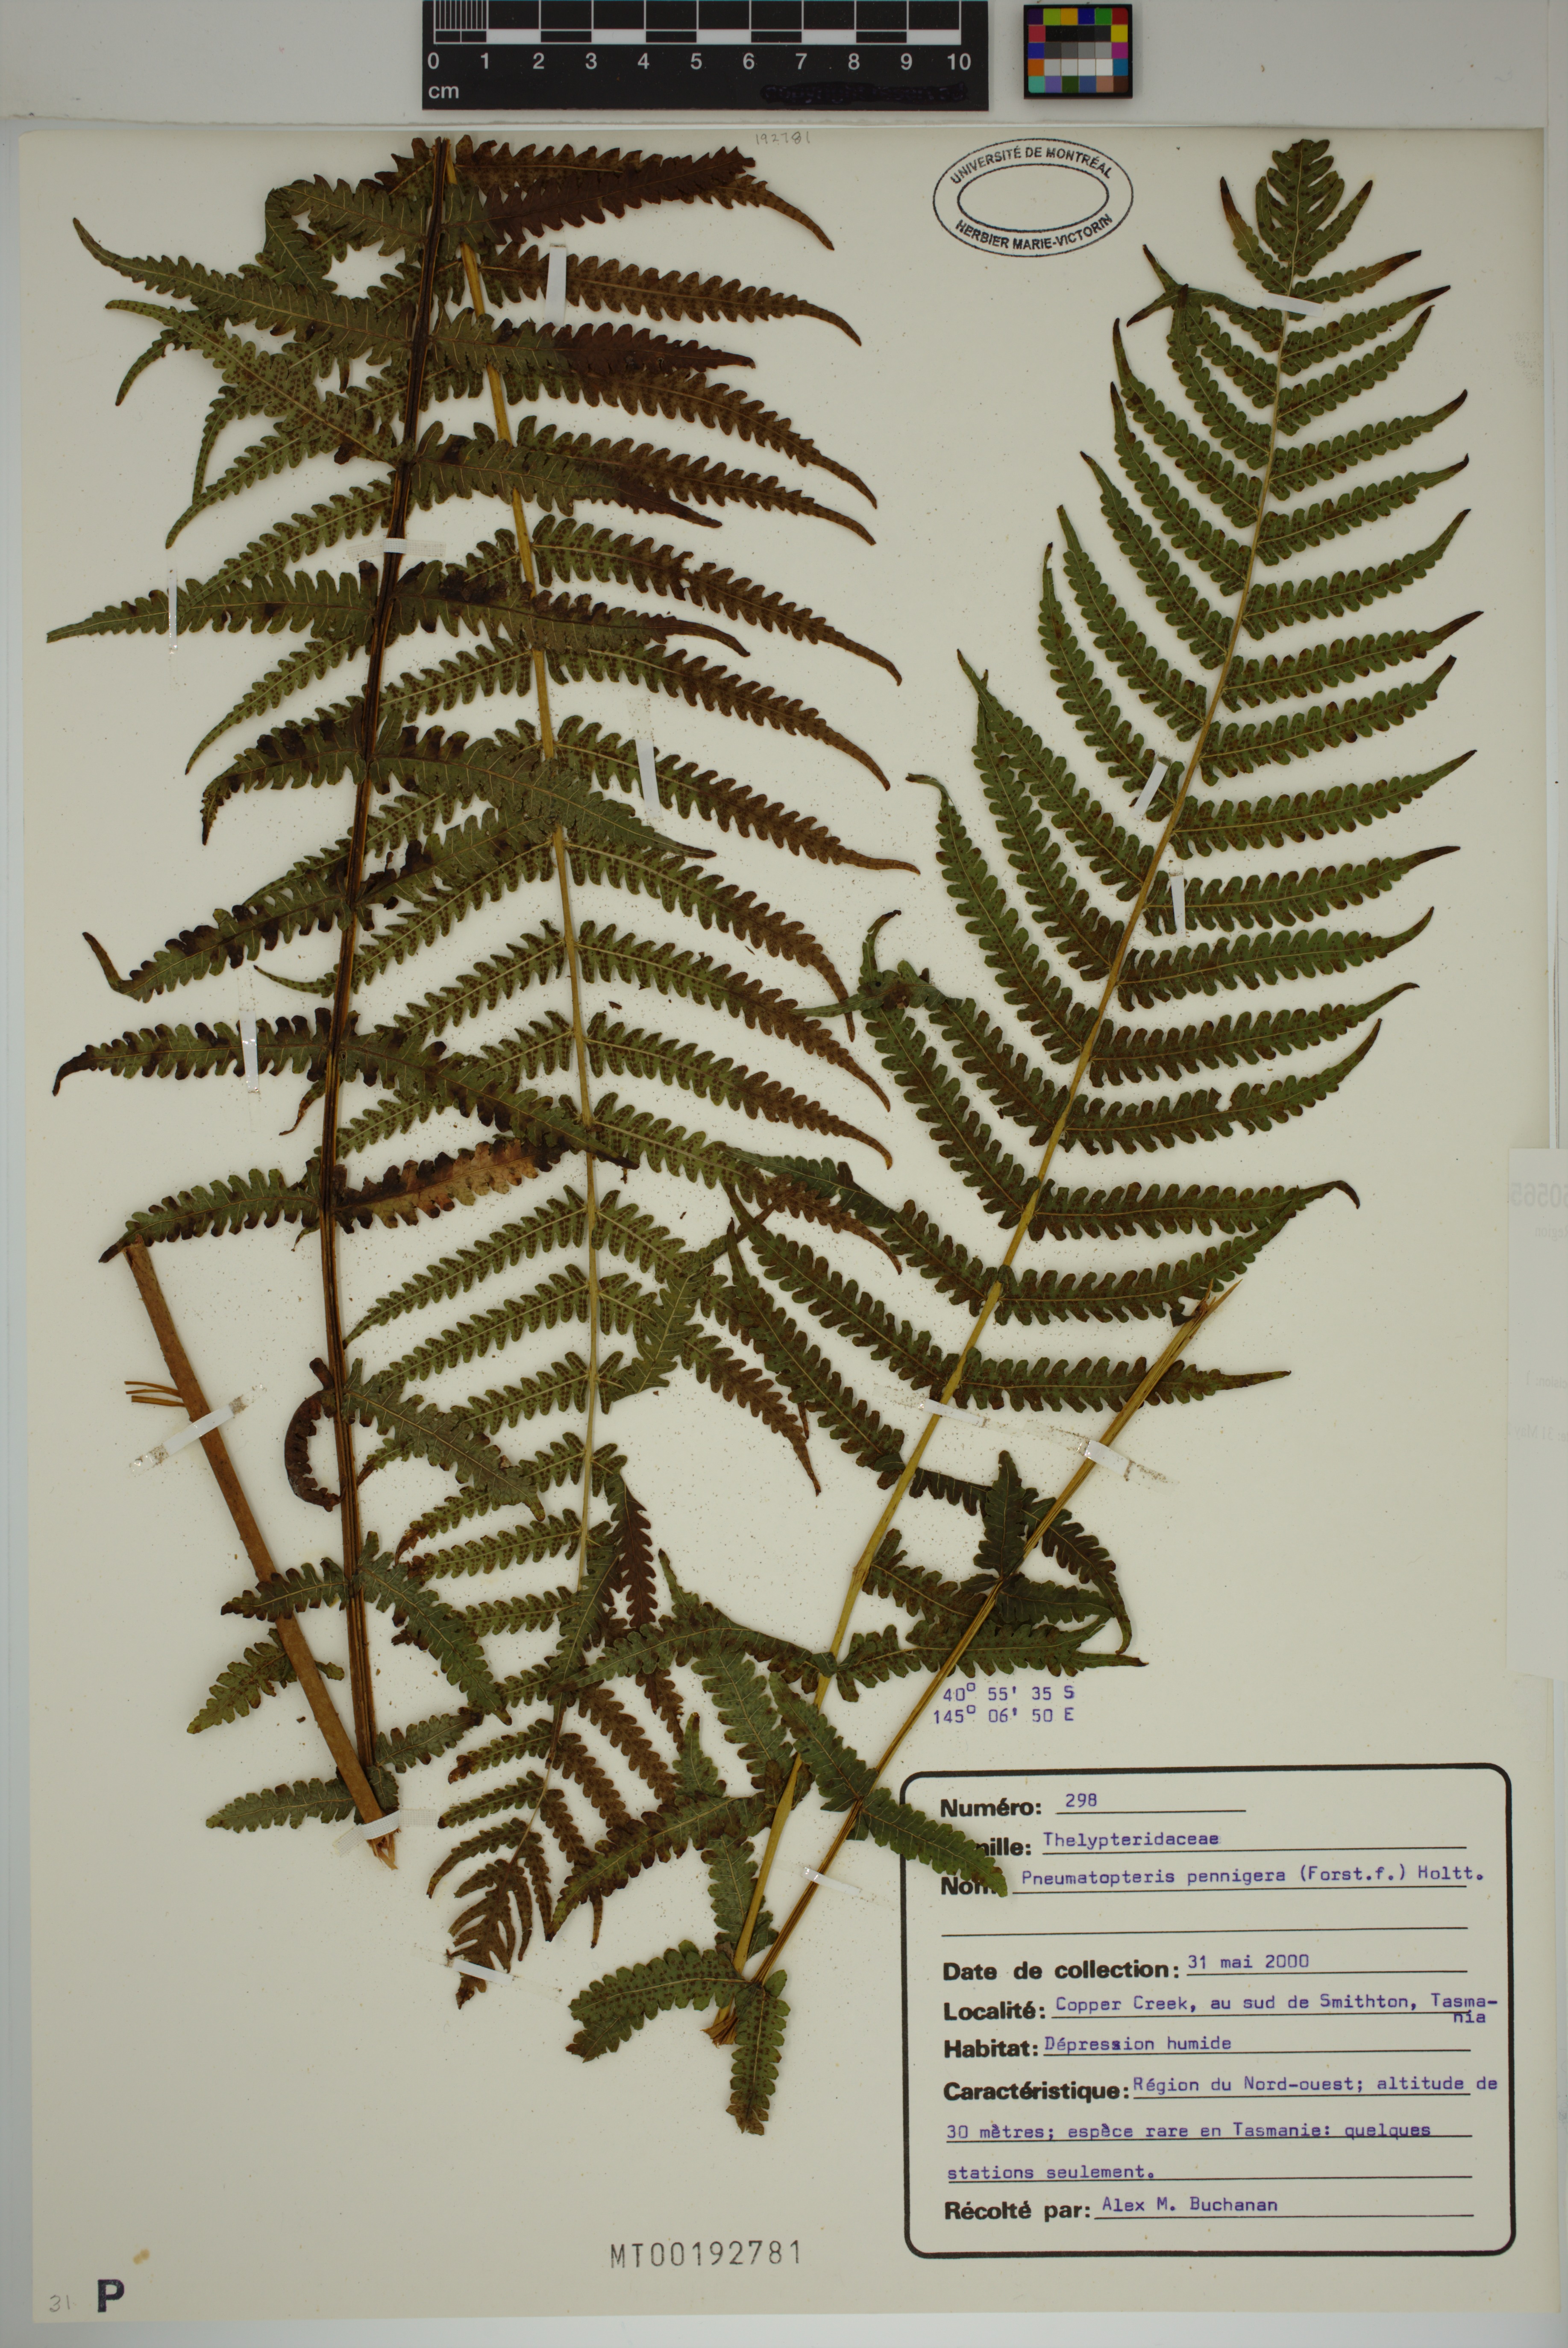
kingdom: Plantae
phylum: Tracheophyta
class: Polypodiopsida
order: Polypodiales
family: Thelypteridaceae
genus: Pakau
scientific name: Pakau pennigera
